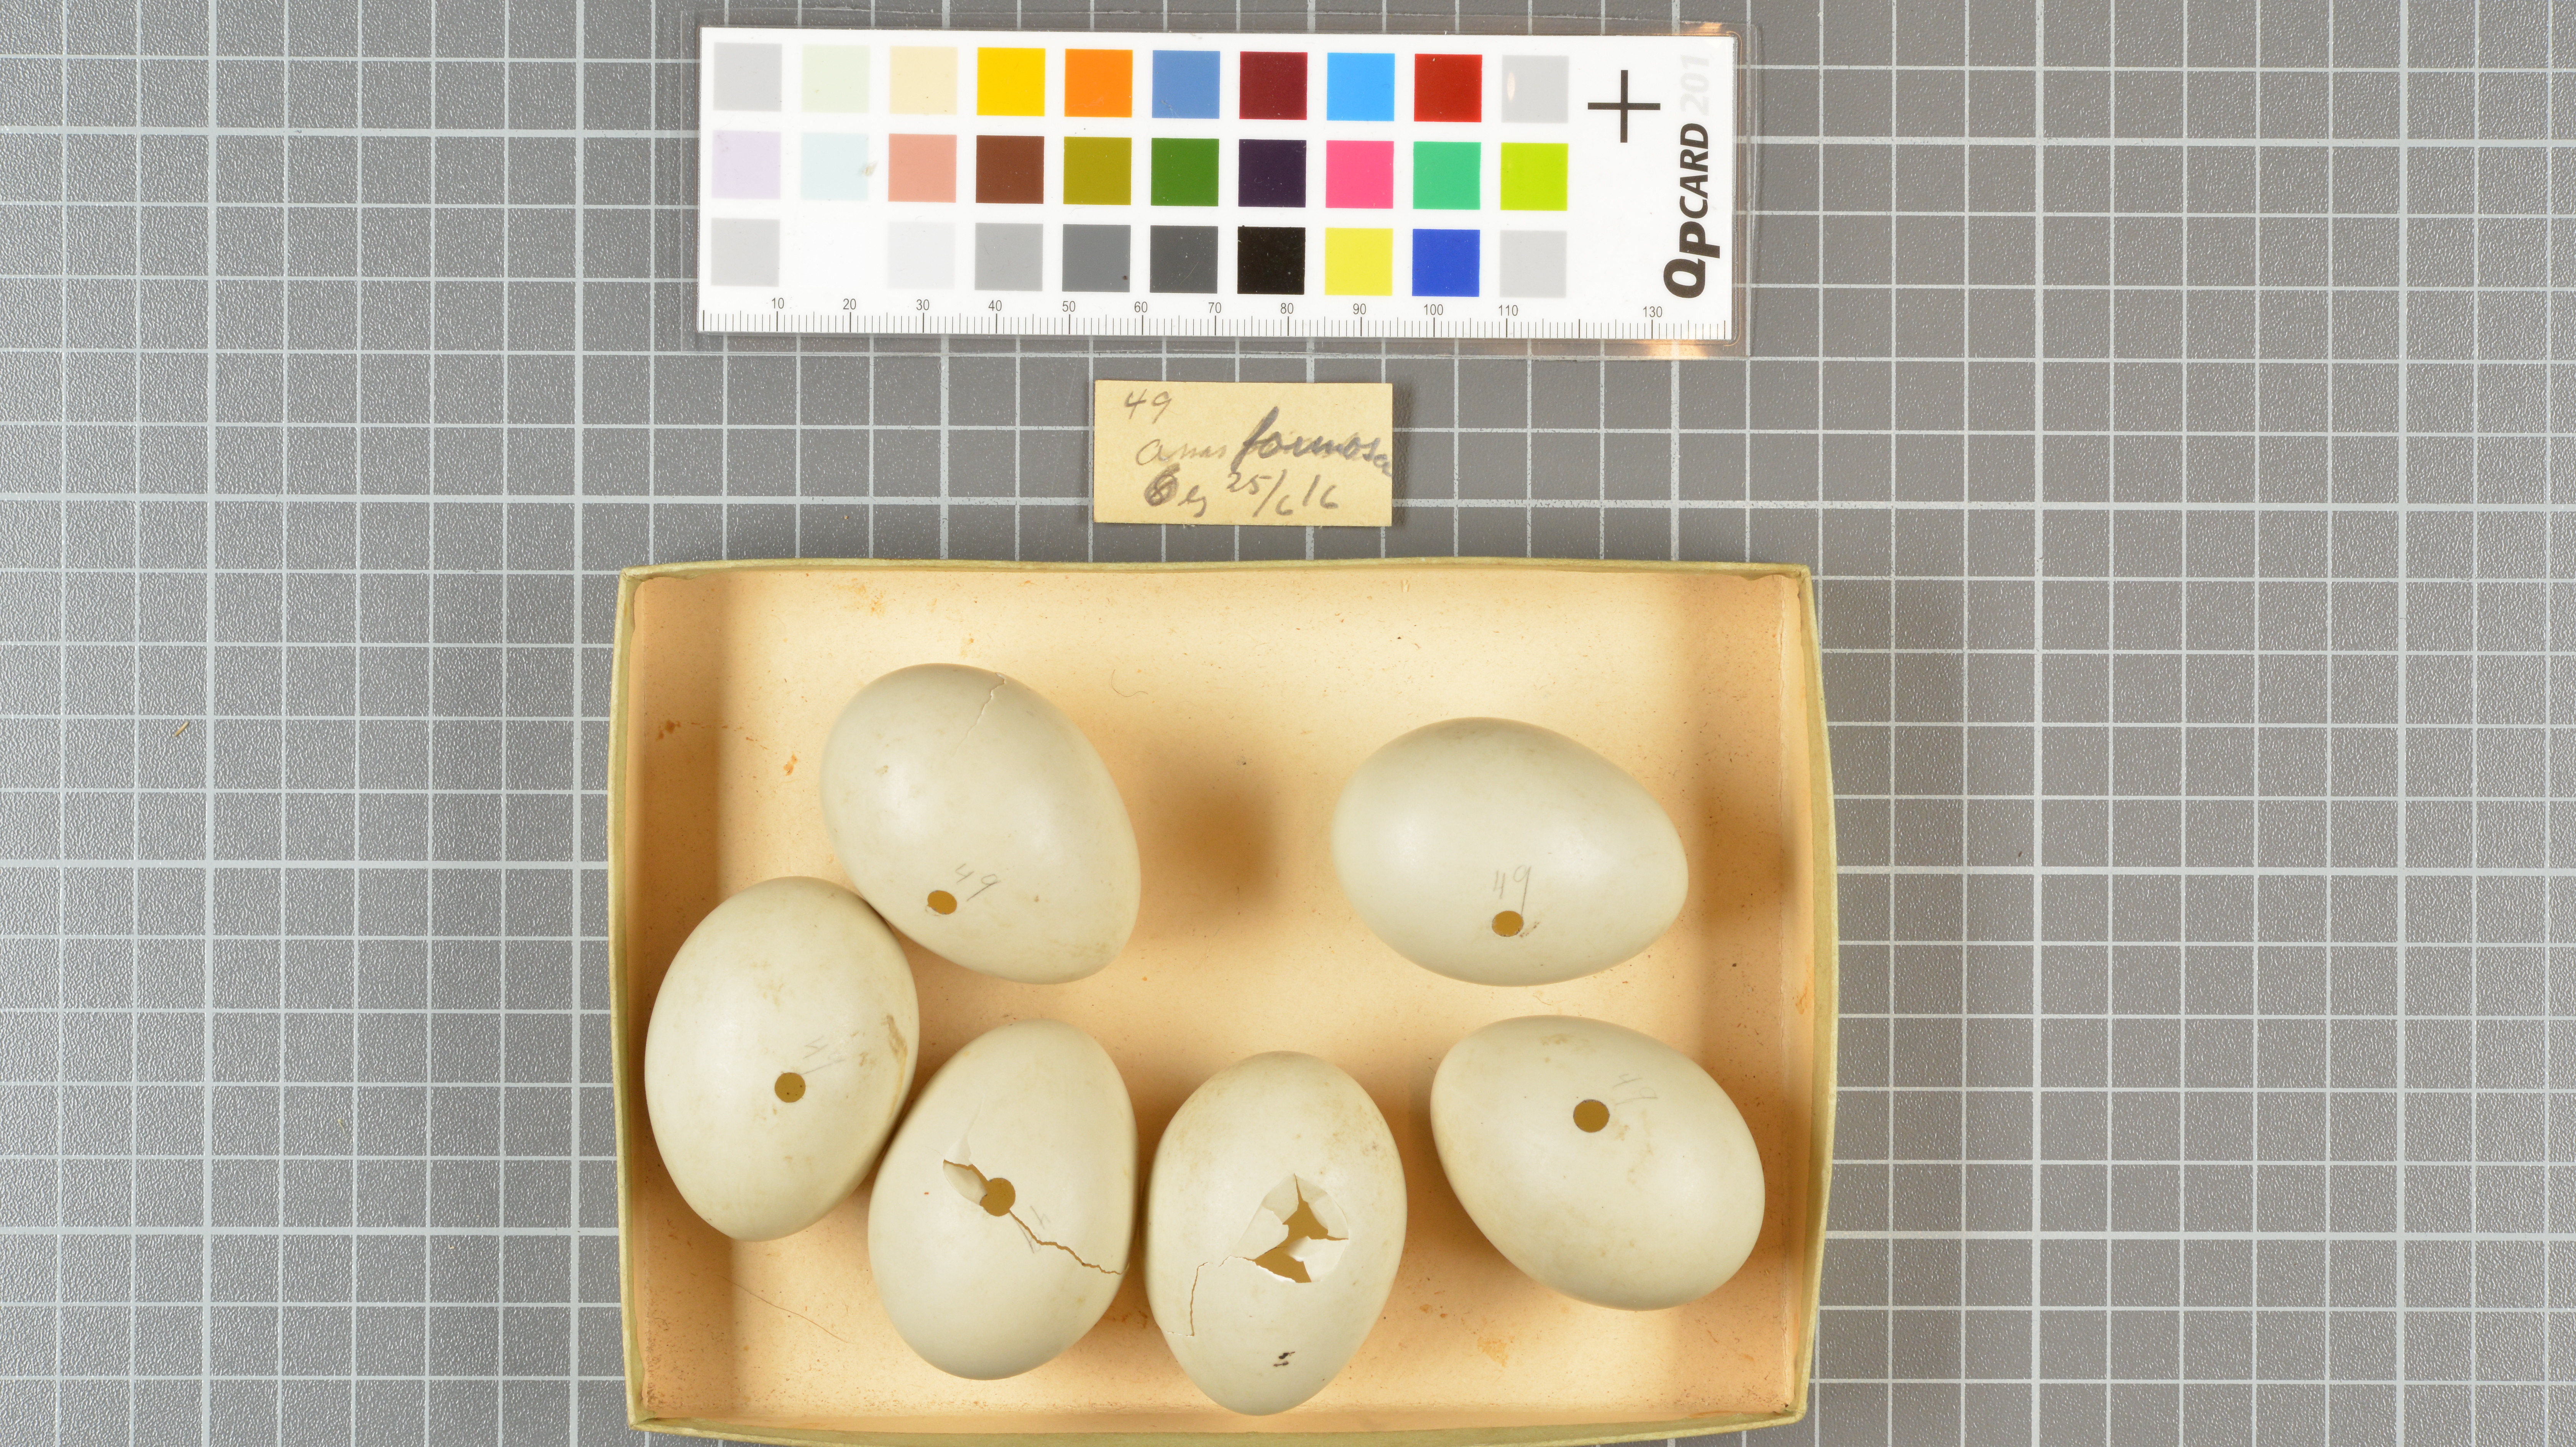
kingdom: Animalia
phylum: Chordata
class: Aves
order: Anseriformes
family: Anatidae
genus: Sibirionetta
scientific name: Sibirionetta formosa
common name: Baikal teal
